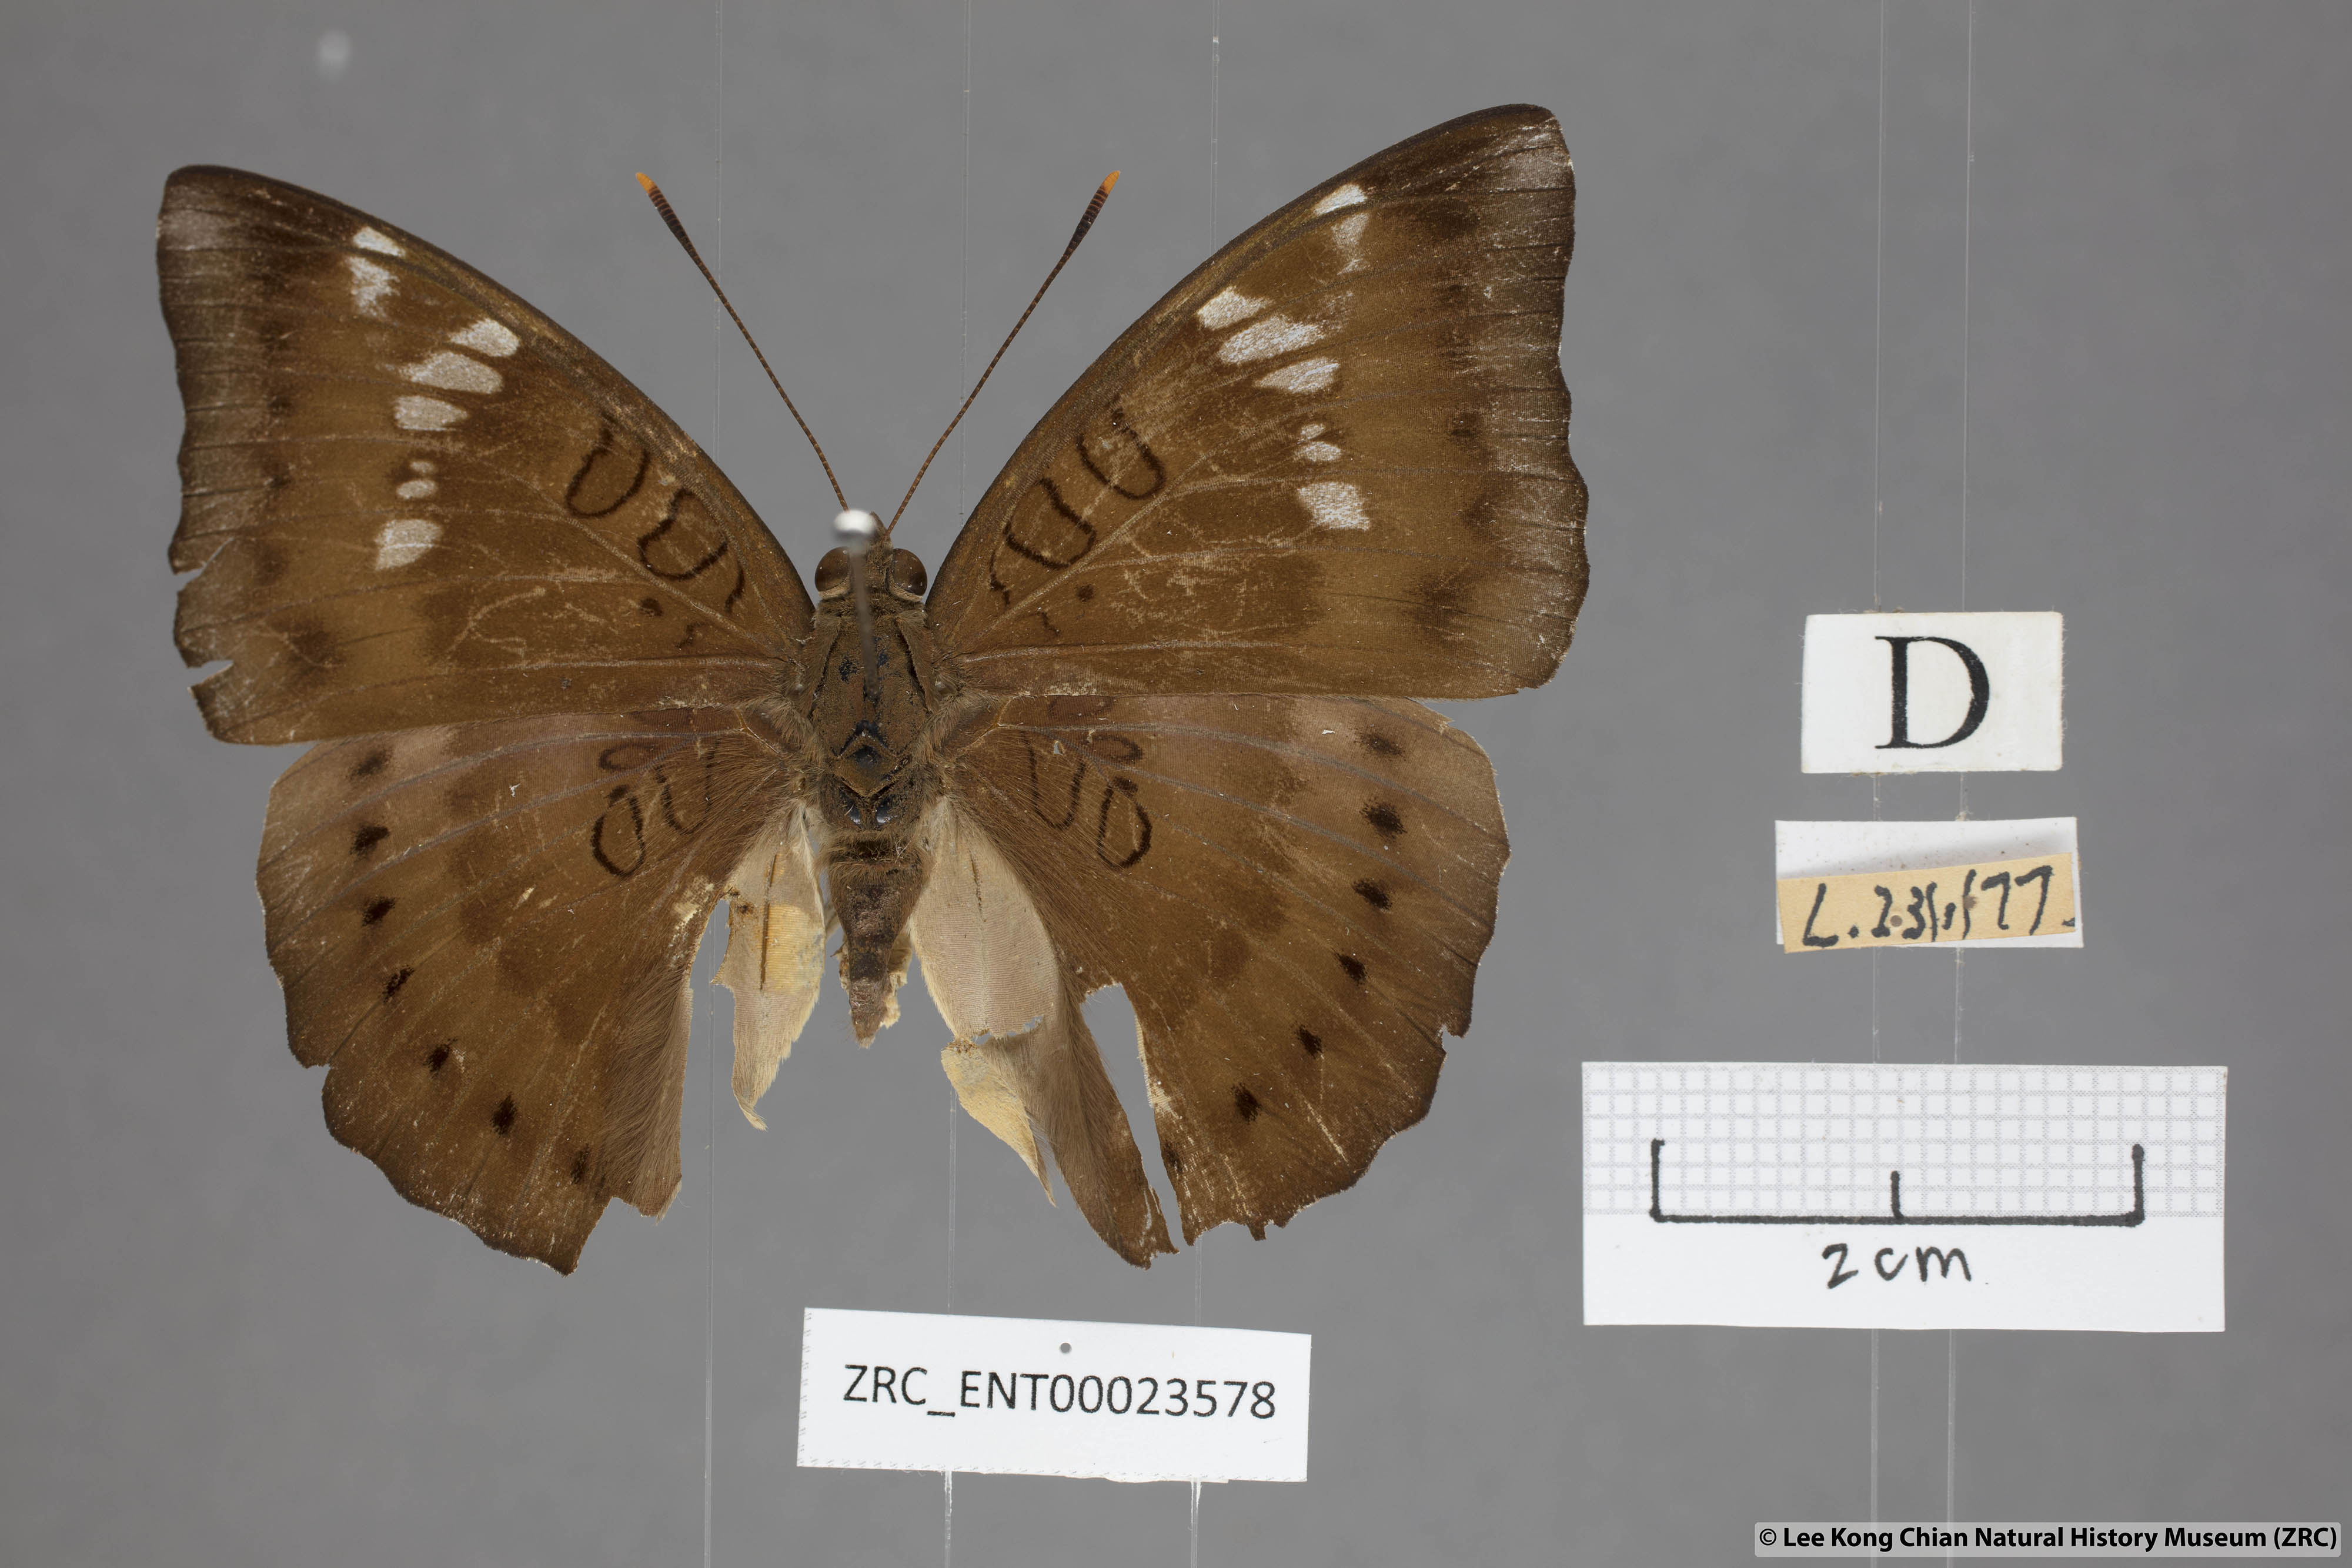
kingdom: Animalia
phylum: Arthropoda
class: Insecta
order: Lepidoptera
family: Nymphalidae
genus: Euthalia
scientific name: Euthalia aconthea
